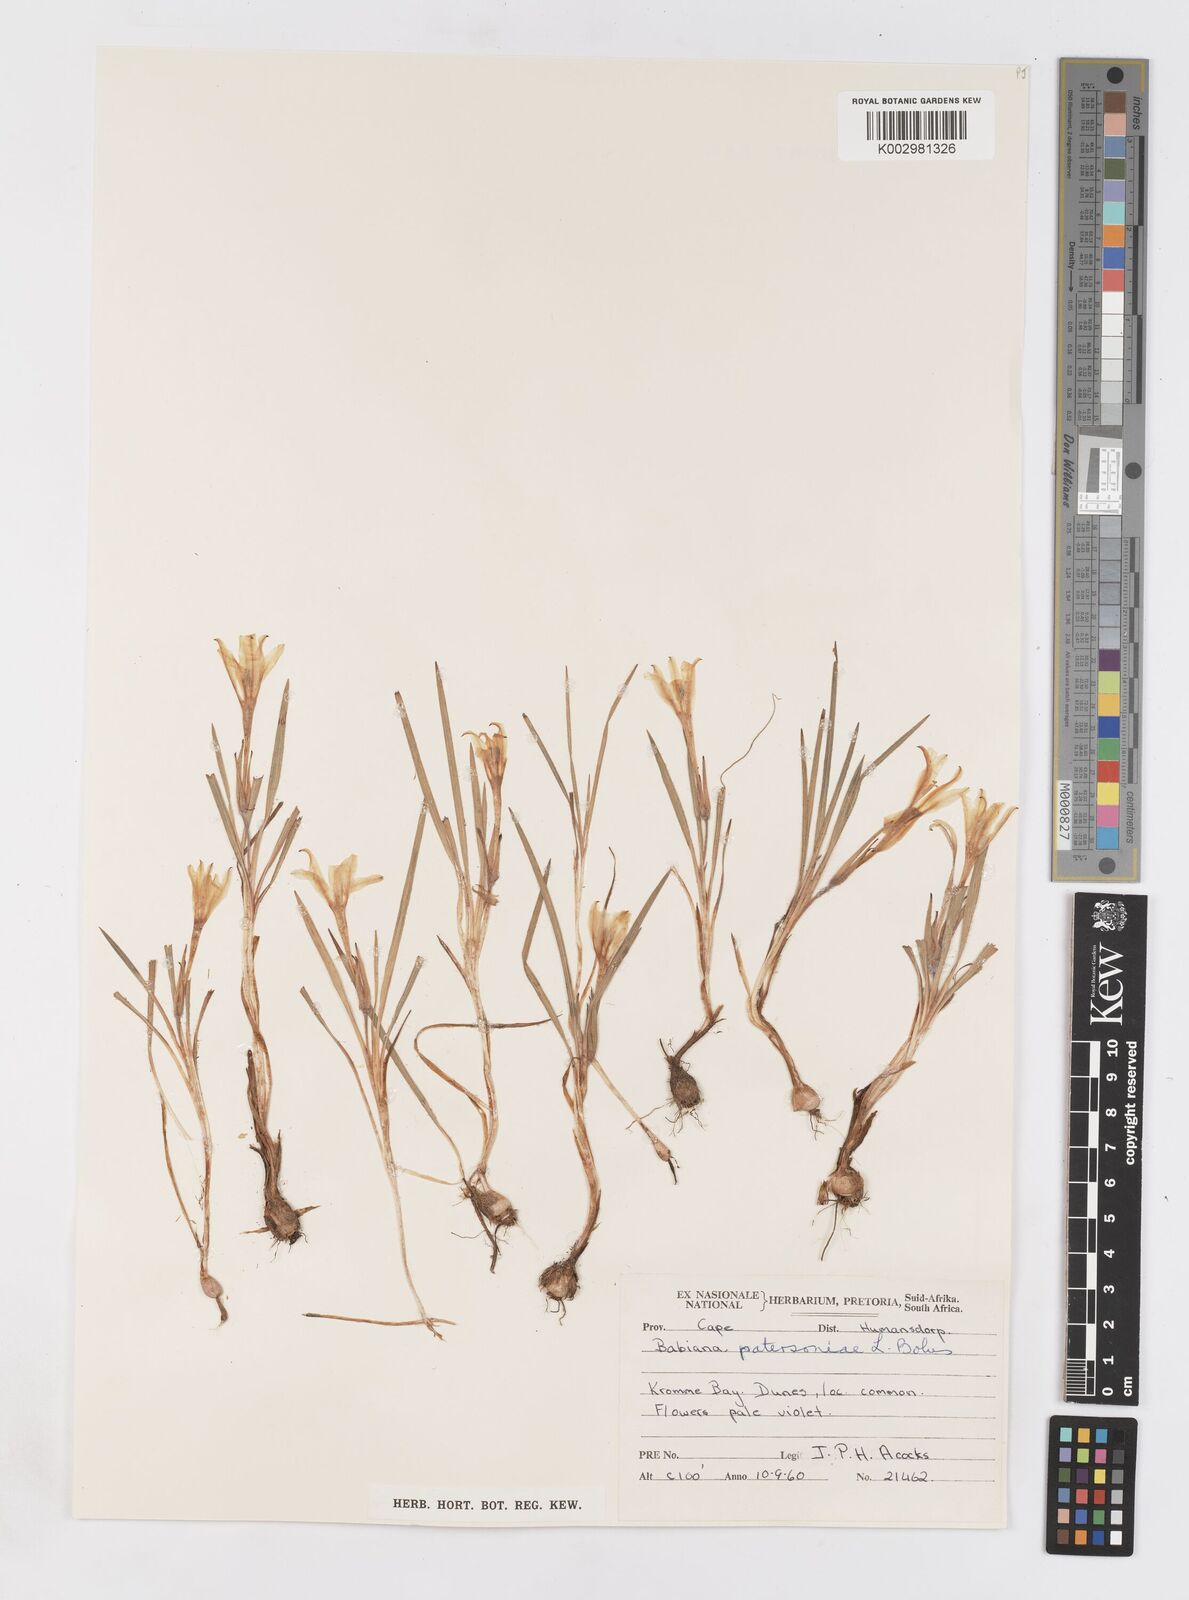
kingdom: Plantae
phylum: Tracheophyta
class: Liliopsida
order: Asparagales
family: Iridaceae
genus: Babiana
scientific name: Babiana patersoniae
